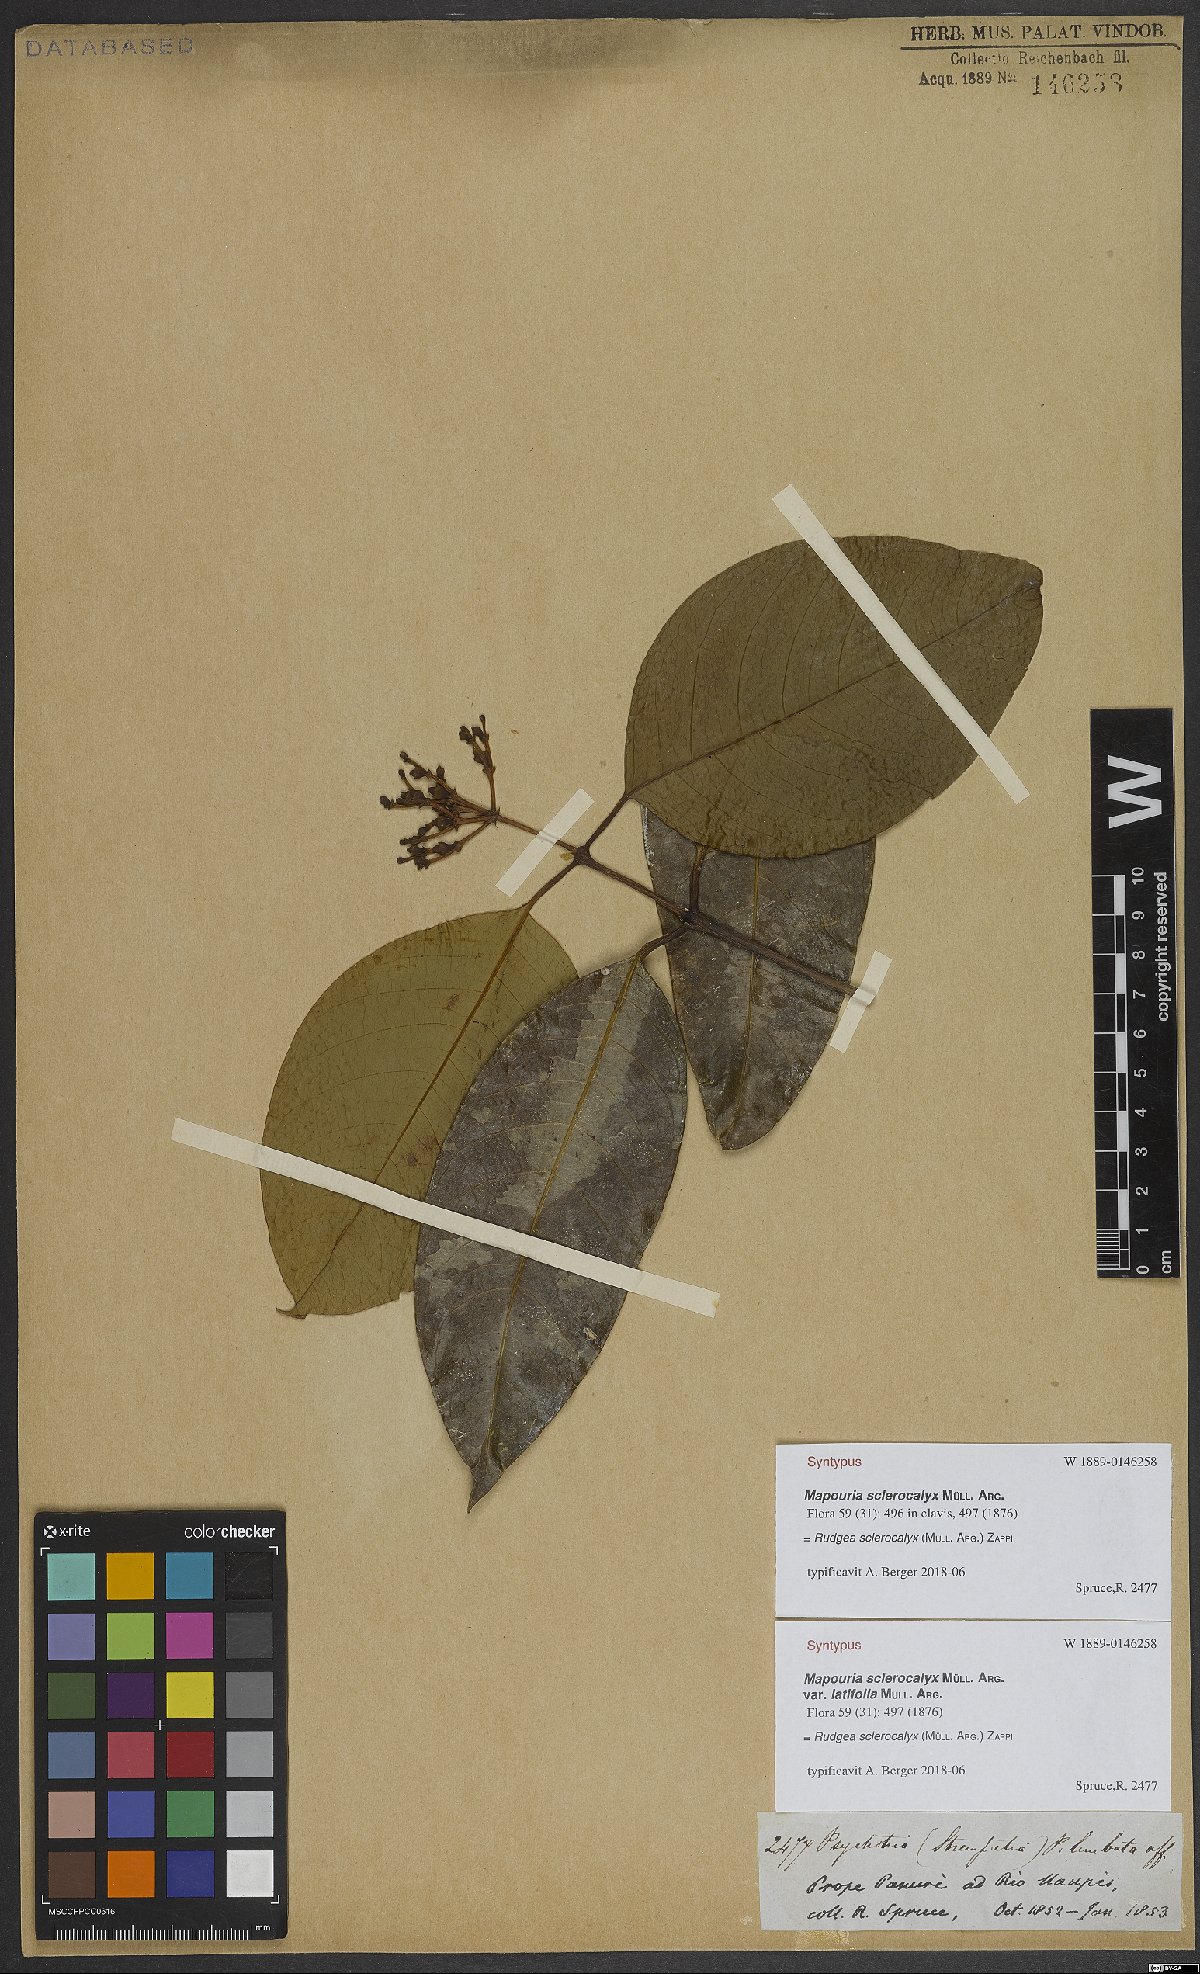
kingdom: Plantae
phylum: Tracheophyta
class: Magnoliopsida
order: Gentianales
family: Rubiaceae
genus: Rudgea
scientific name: Rudgea sclerocalyx
